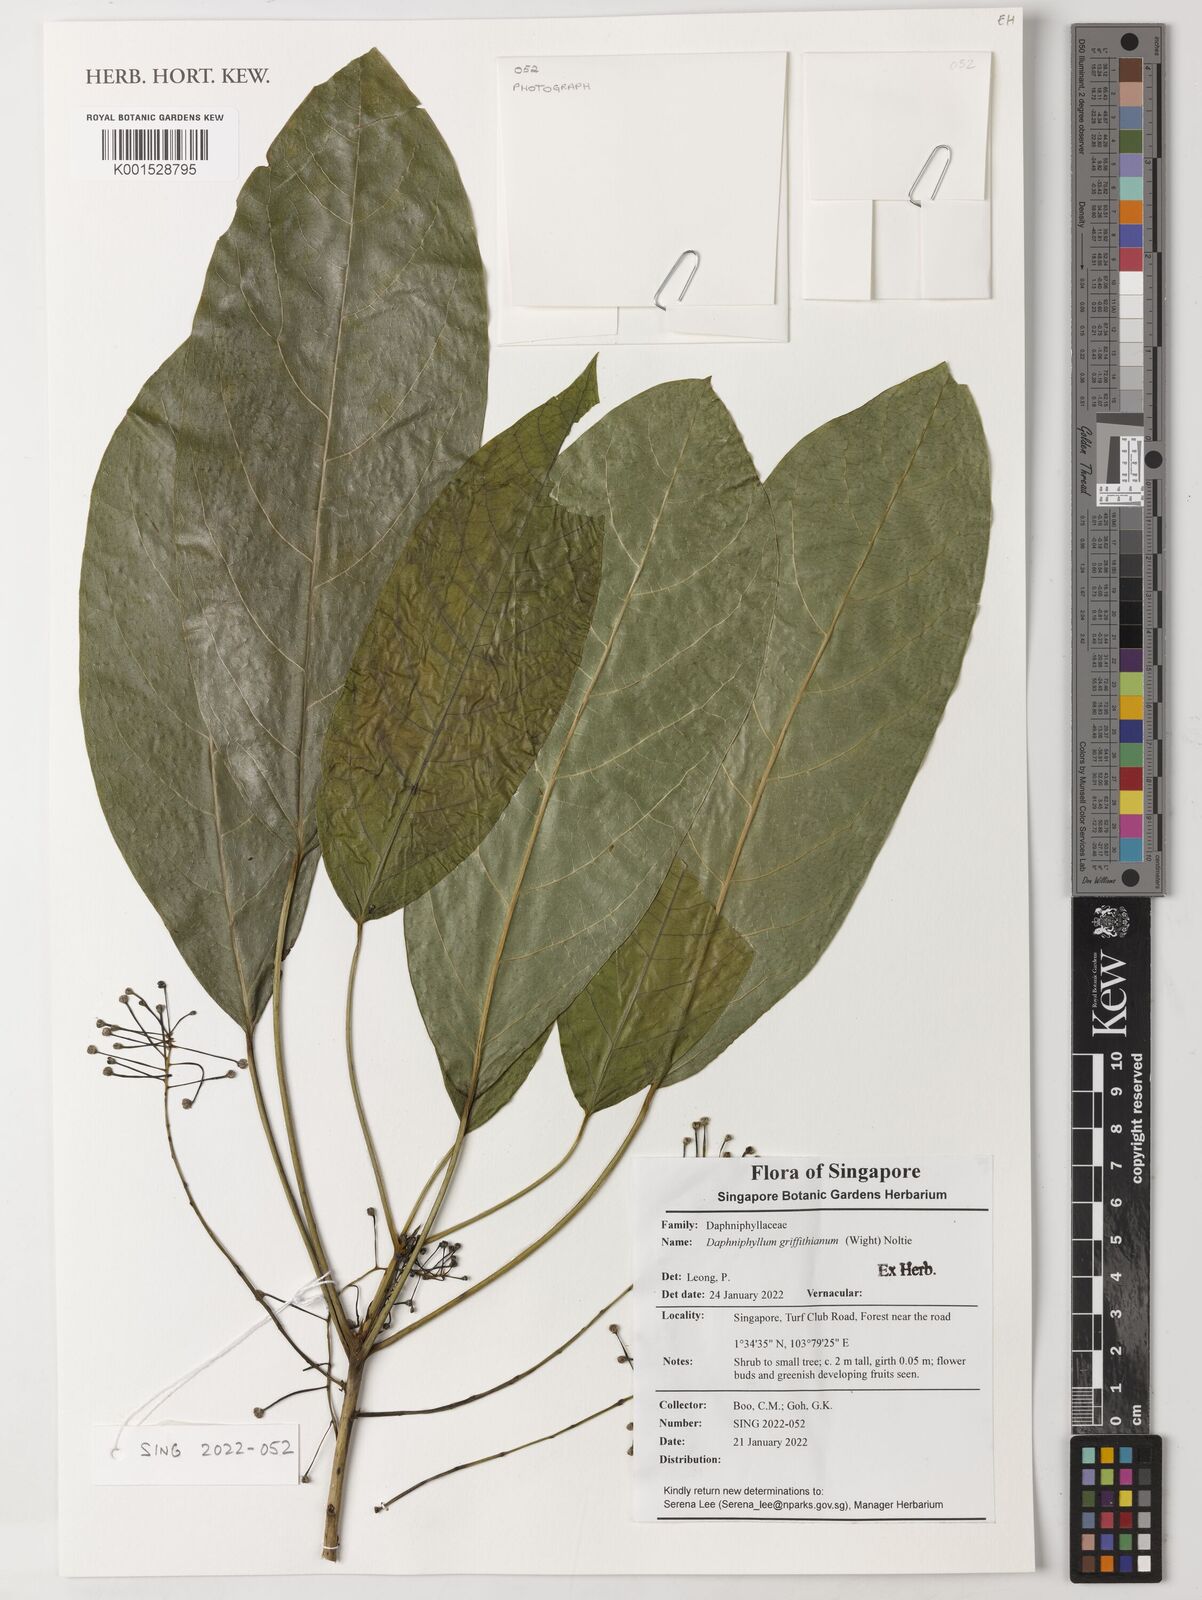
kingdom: Plantae
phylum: Tracheophyta
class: Magnoliopsida
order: Saxifragales
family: Daphniphyllaceae
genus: Daphniphyllum
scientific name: Daphniphyllum griffithianum
